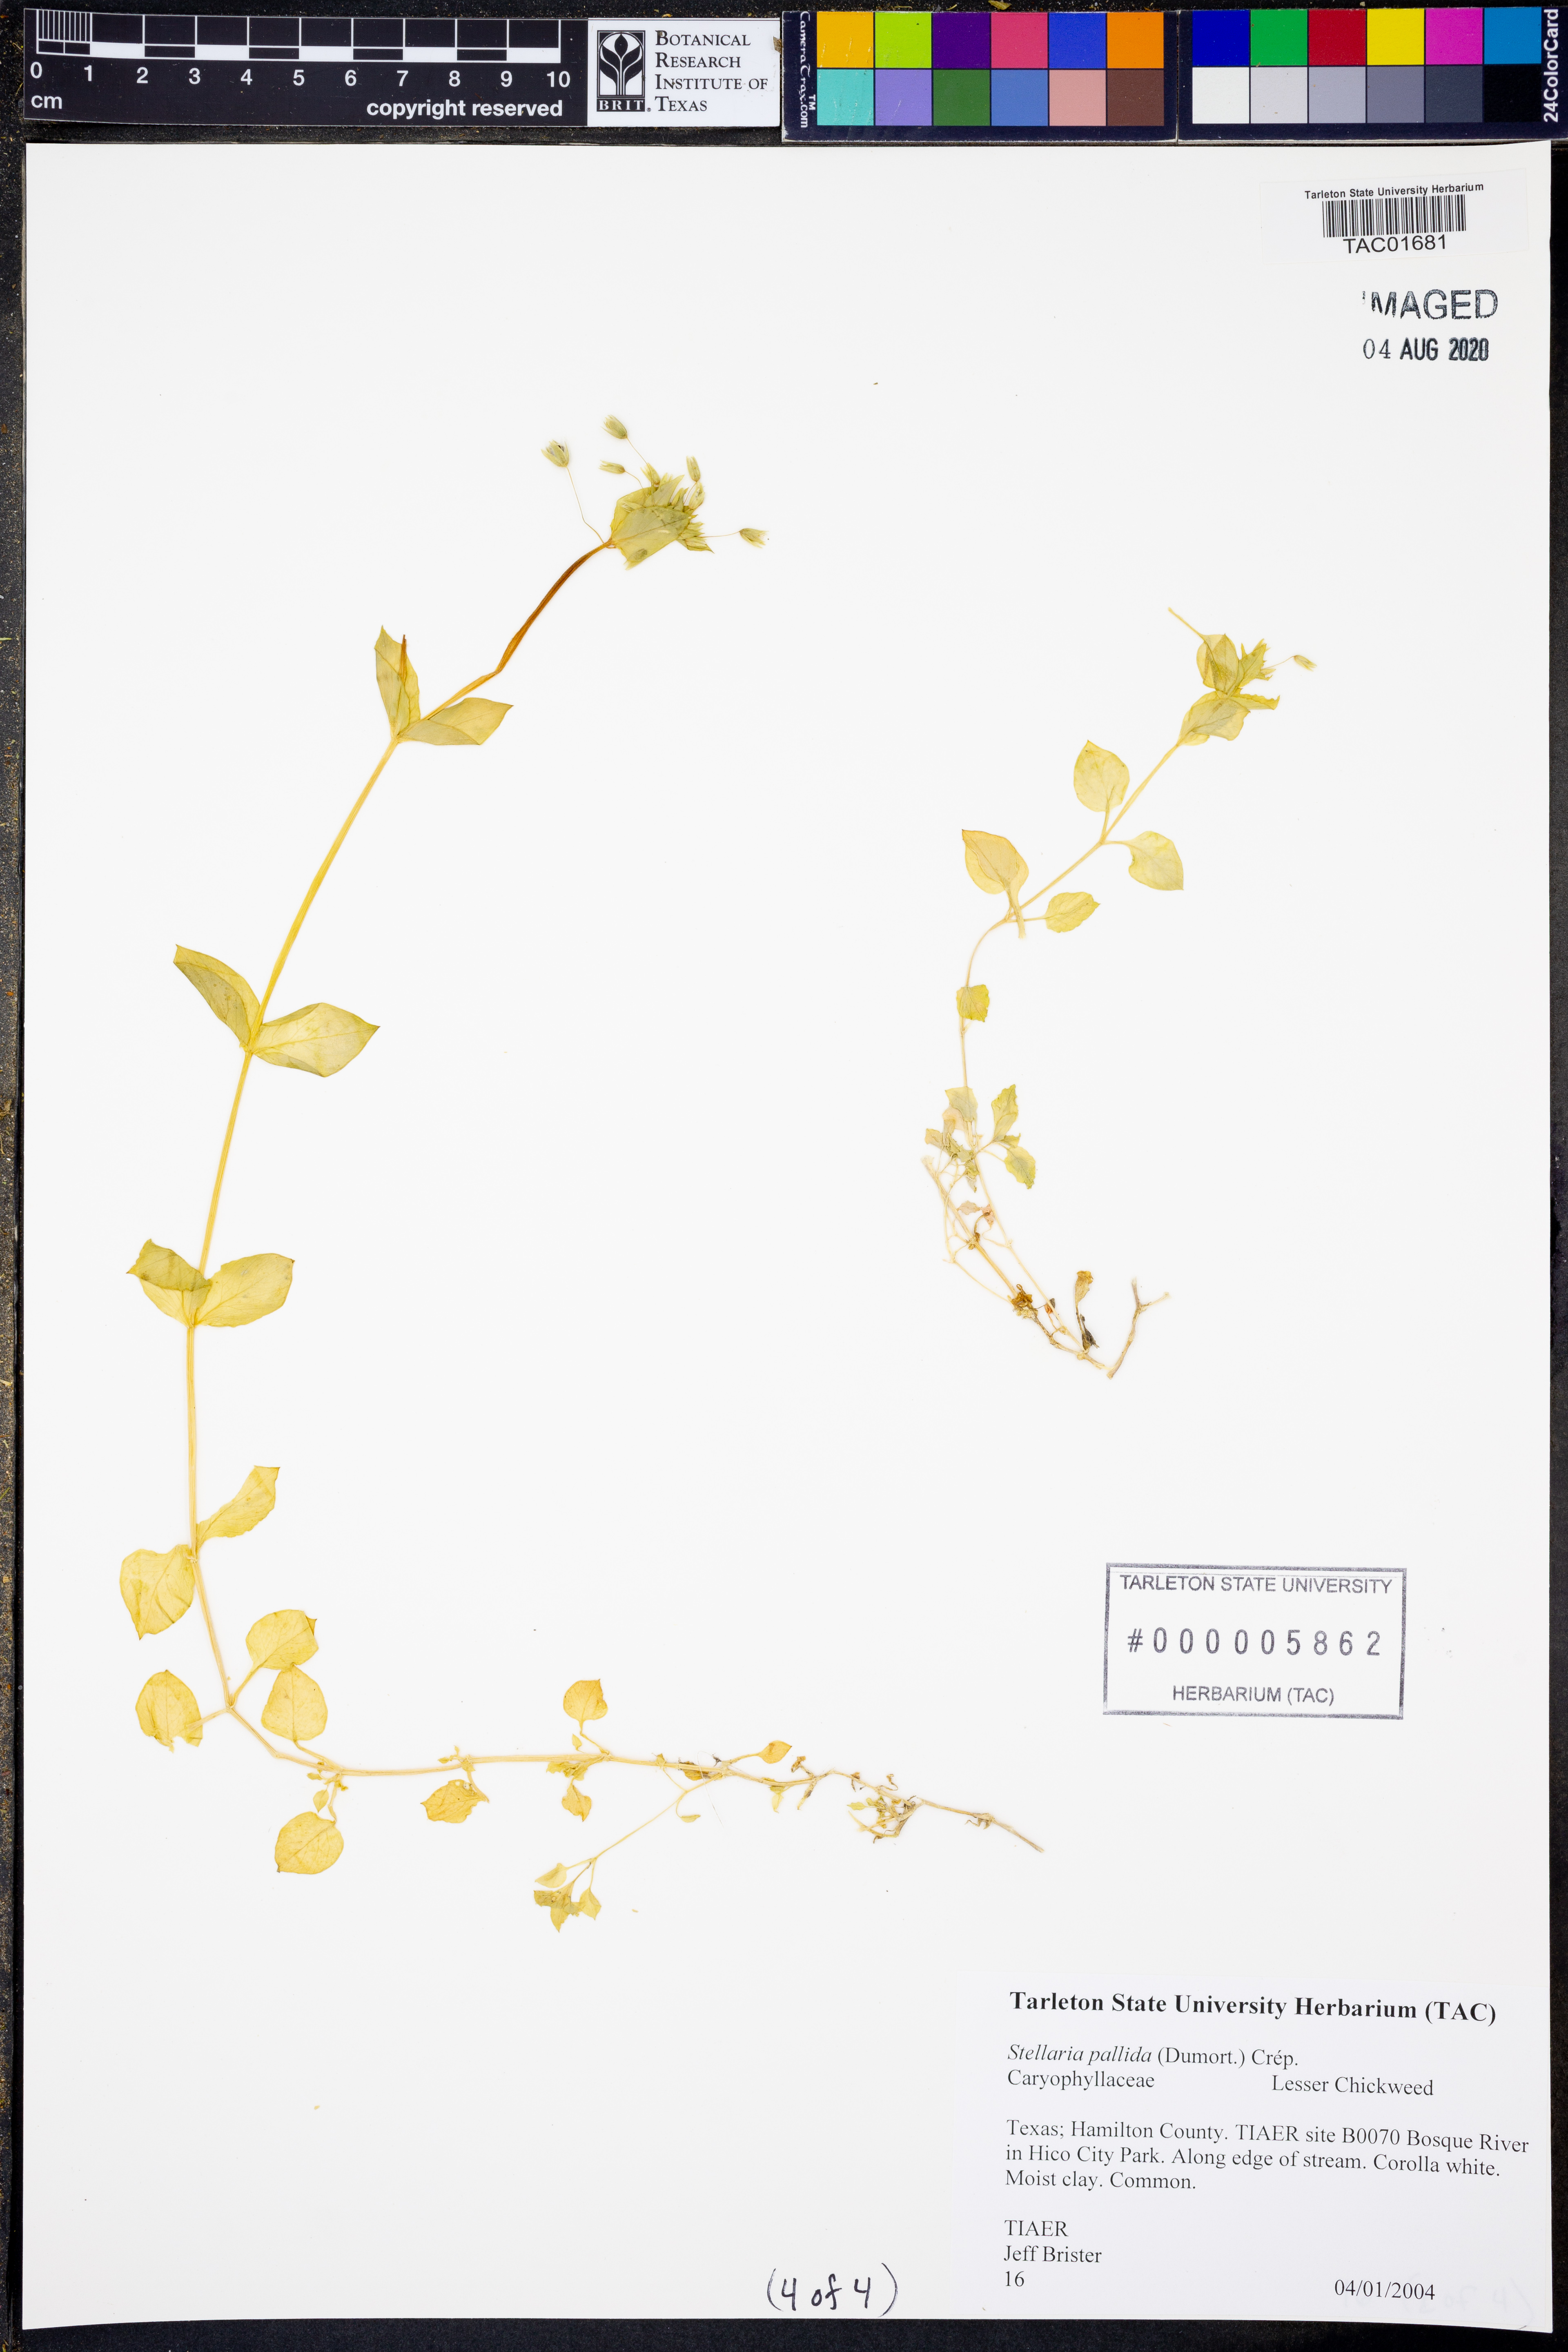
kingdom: Plantae
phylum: Tracheophyta
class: Magnoliopsida
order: Caryophyllales
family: Caryophyllaceae
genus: Stellaria
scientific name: Stellaria apetala
